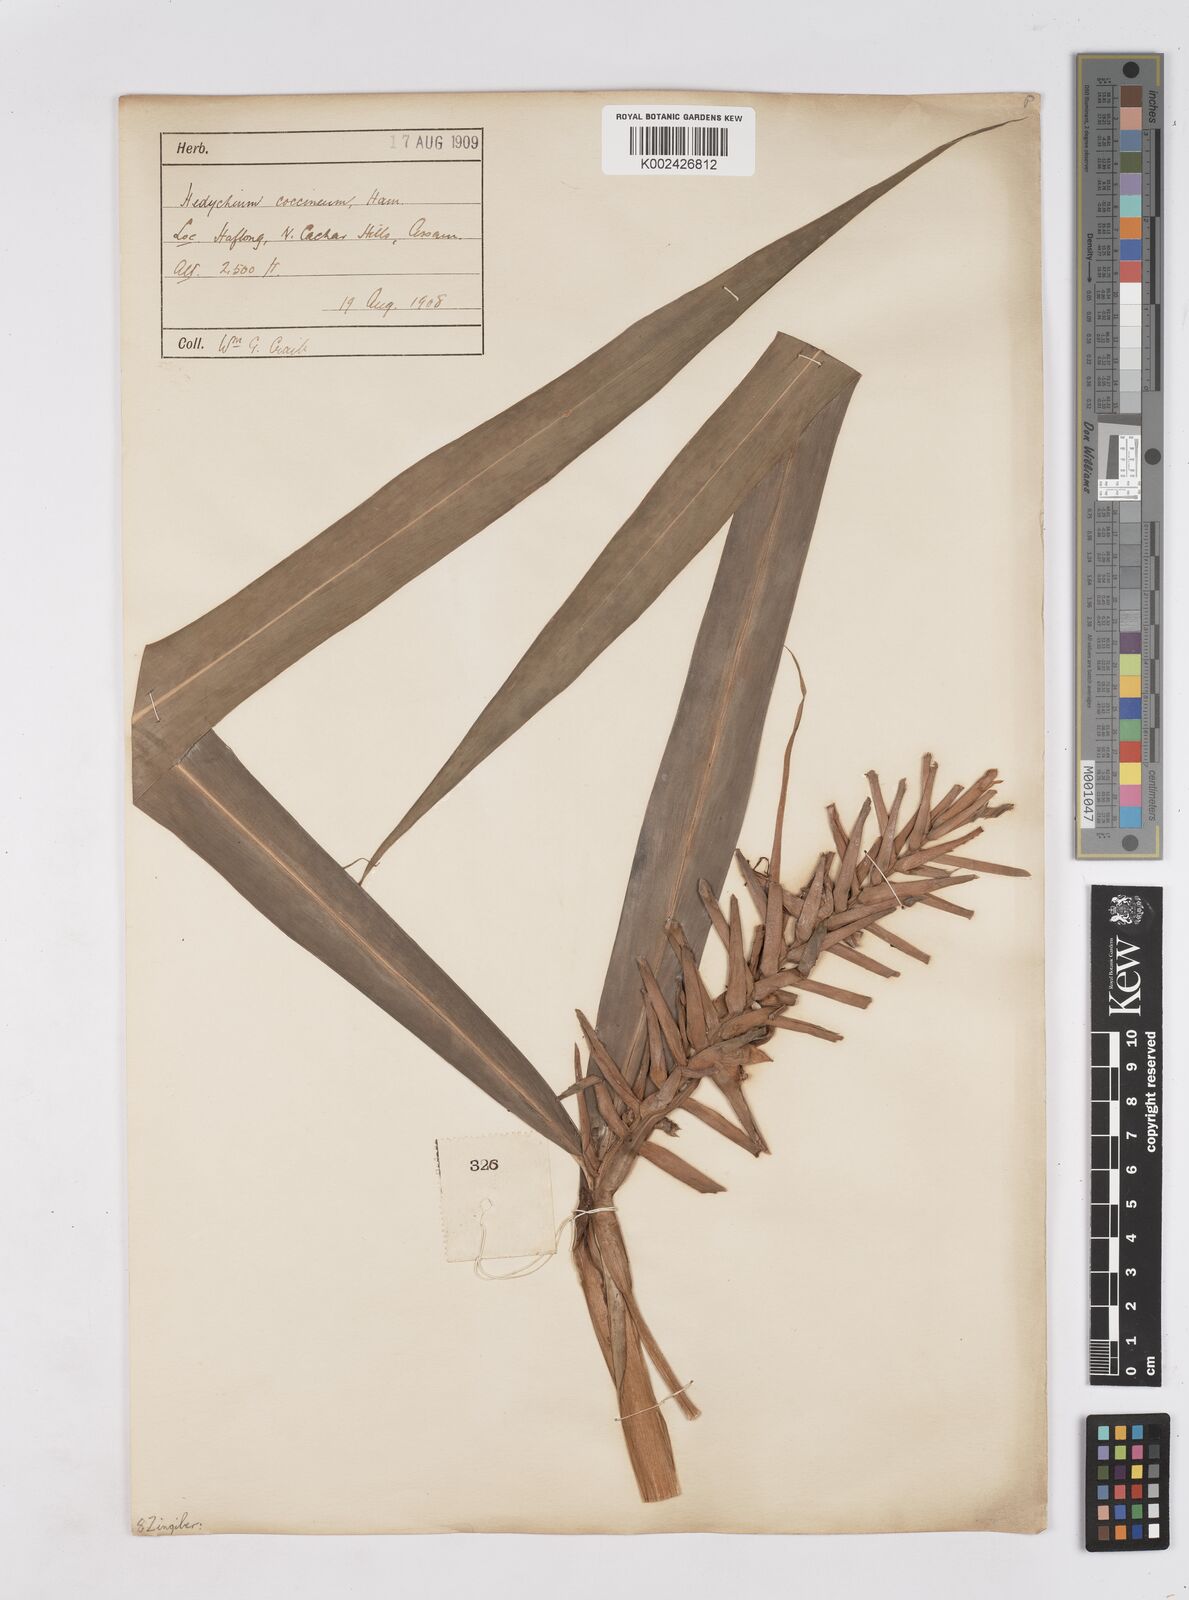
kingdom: Plantae
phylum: Tracheophyta
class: Liliopsida
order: Zingiberales
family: Zingiberaceae
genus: Hedychium
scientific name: Hedychium coccineum
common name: Red ginger-lily
